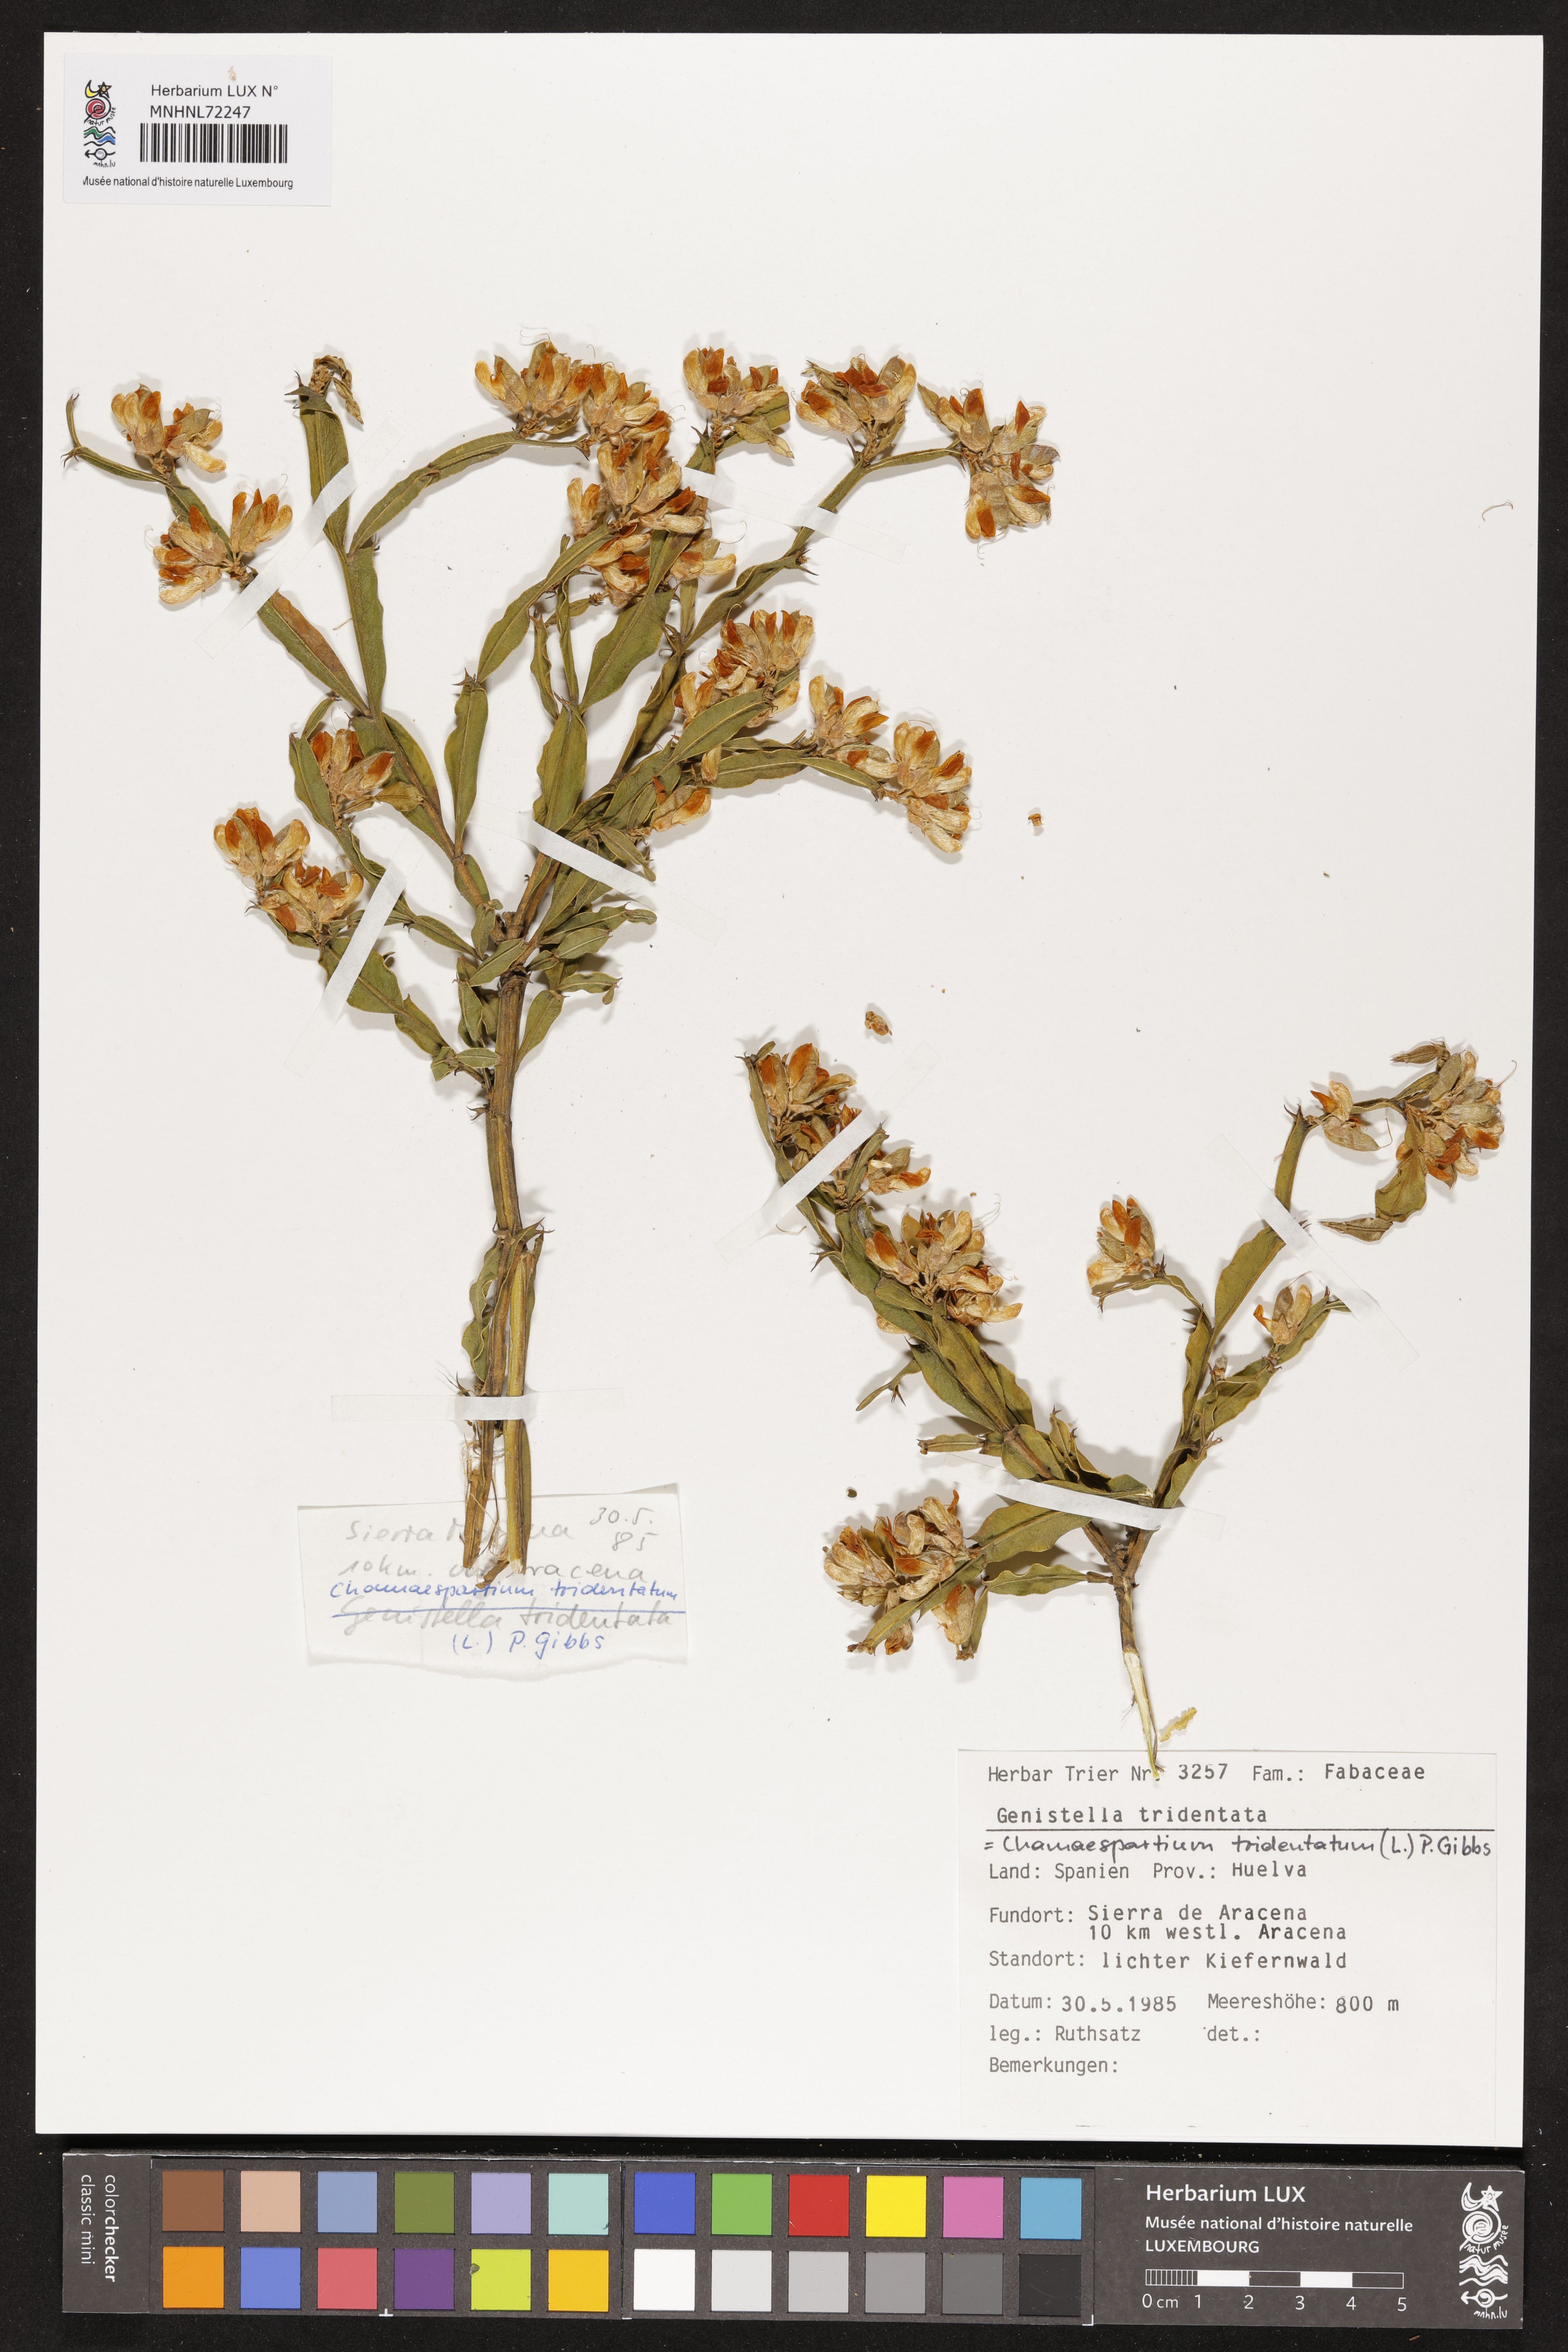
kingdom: Plantae
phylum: Tracheophyta
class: Magnoliopsida
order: Fabales
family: Fabaceae
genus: Genista
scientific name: Genista tridentata
